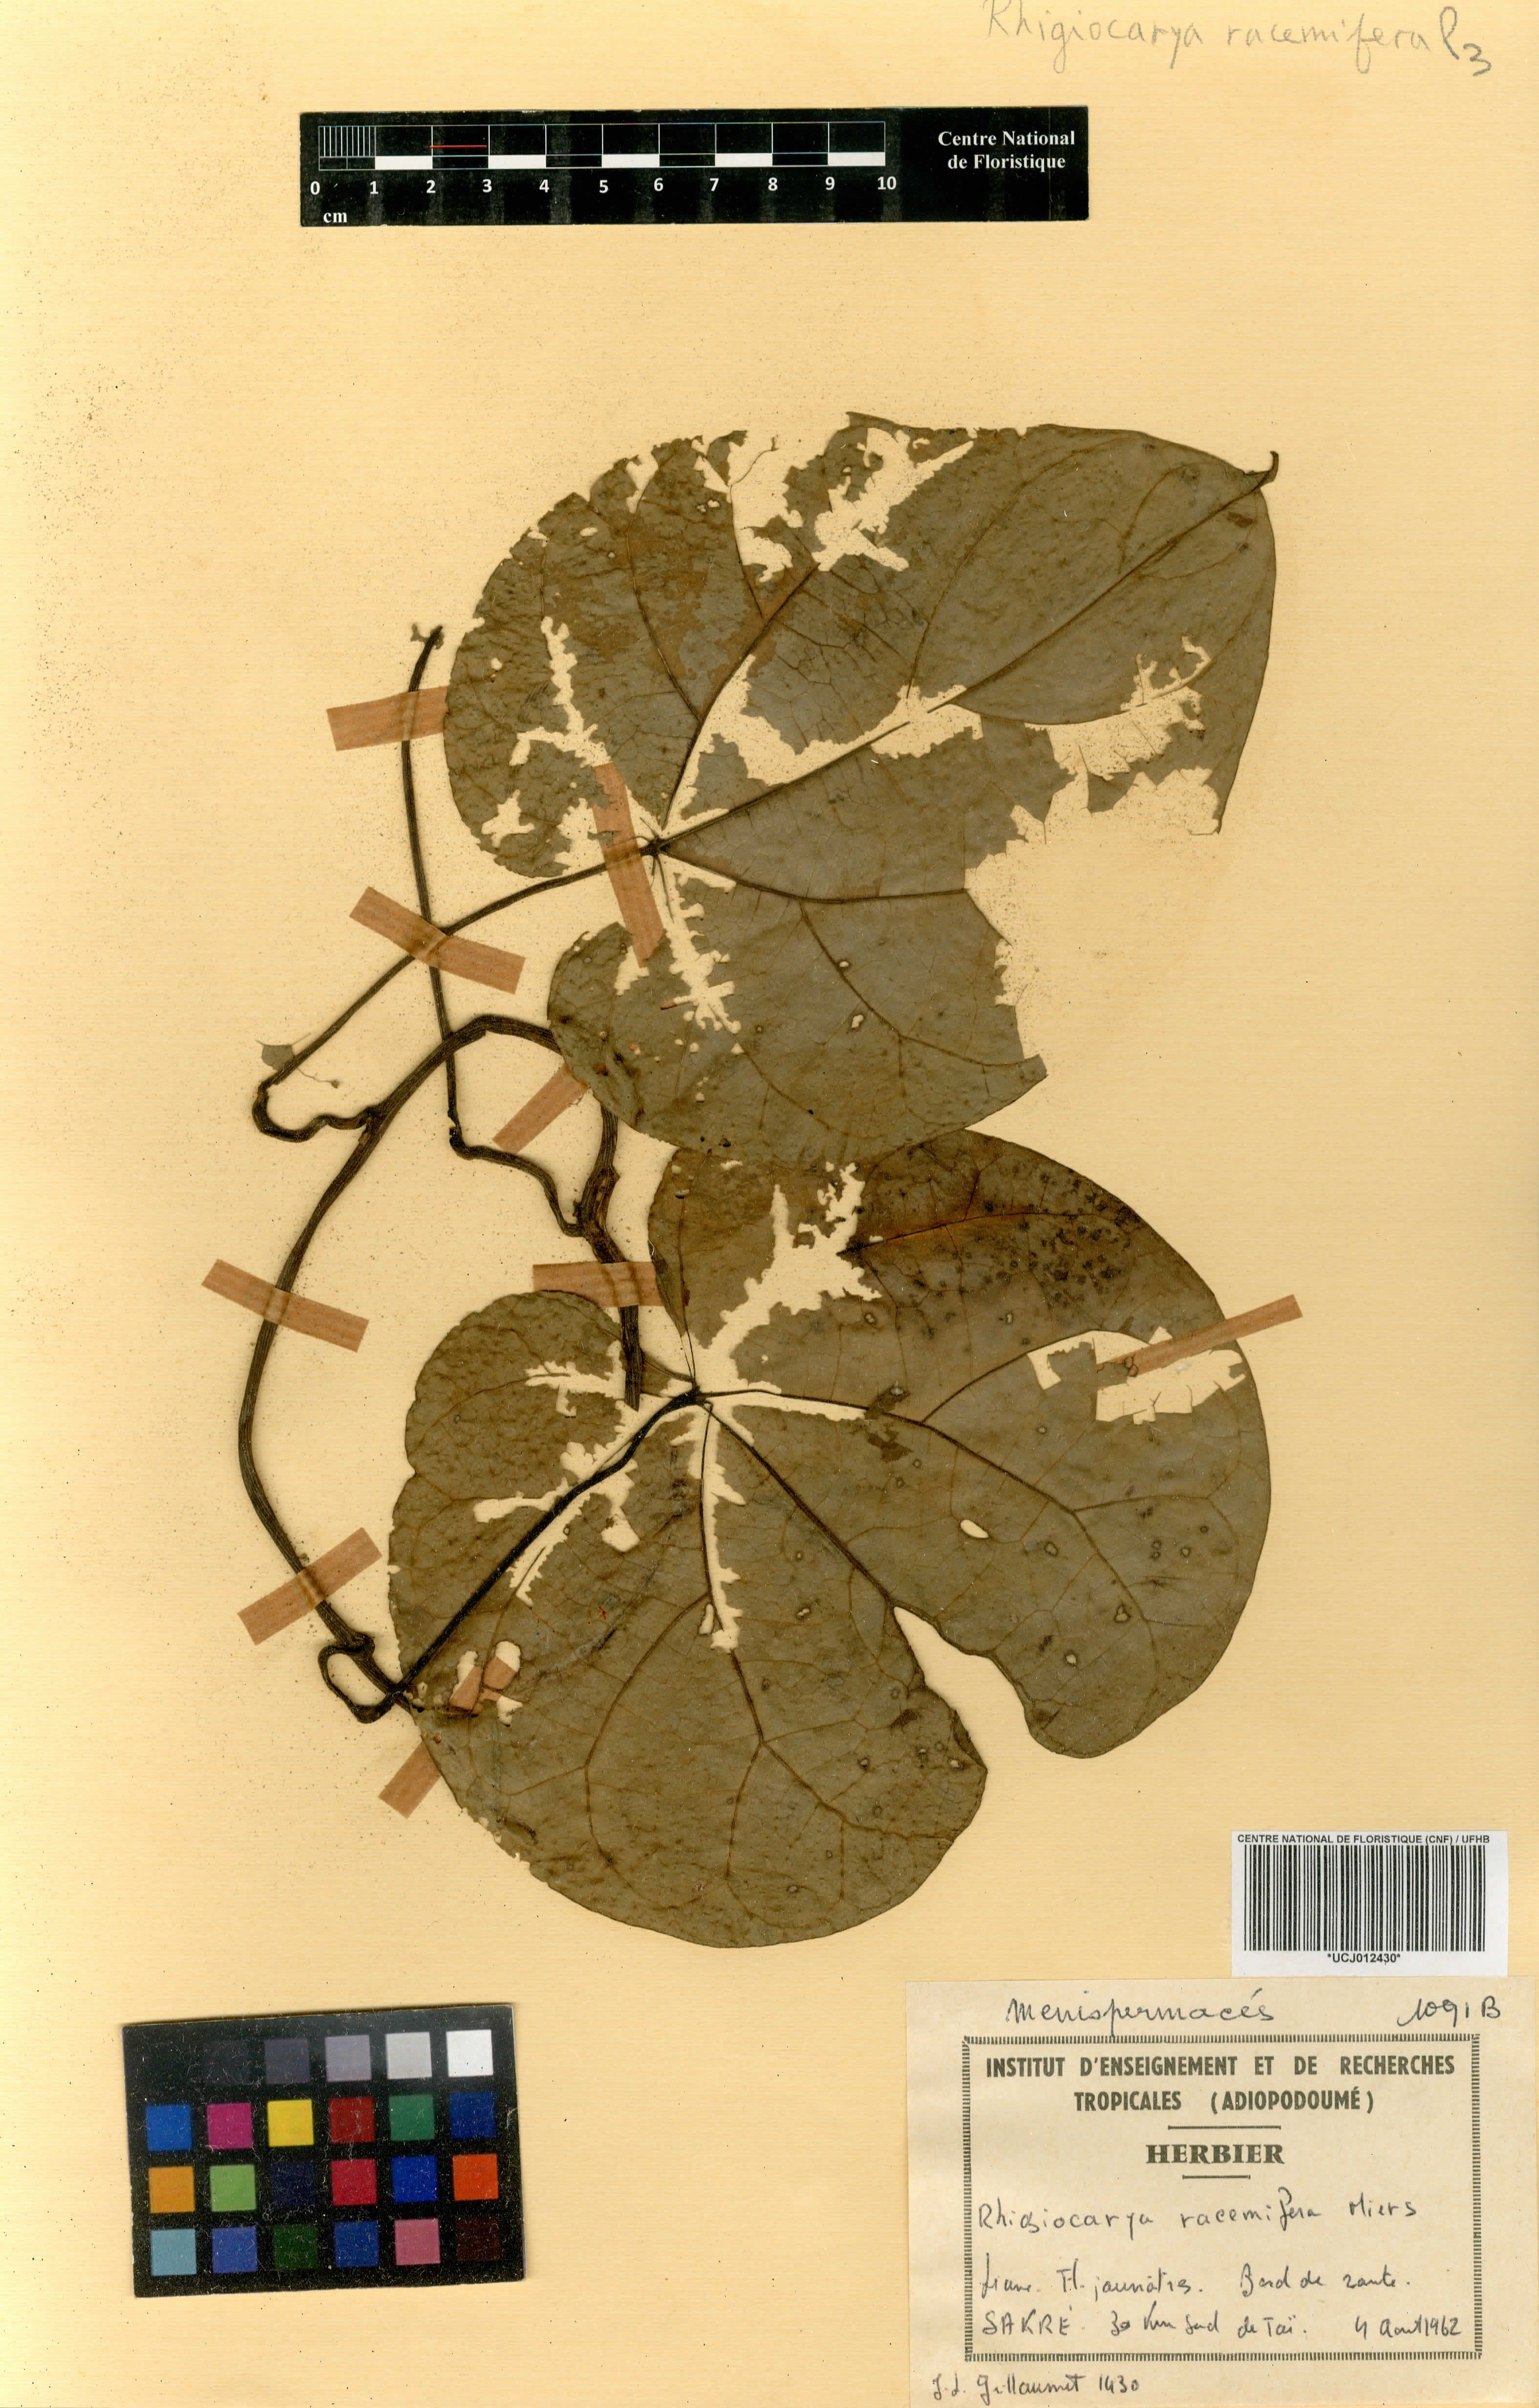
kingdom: Plantae
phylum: Tracheophyta
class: Magnoliopsida
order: Ranunculales
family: Menispermaceae
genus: Rhigiocarya
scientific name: Rhigiocarya racemifera
